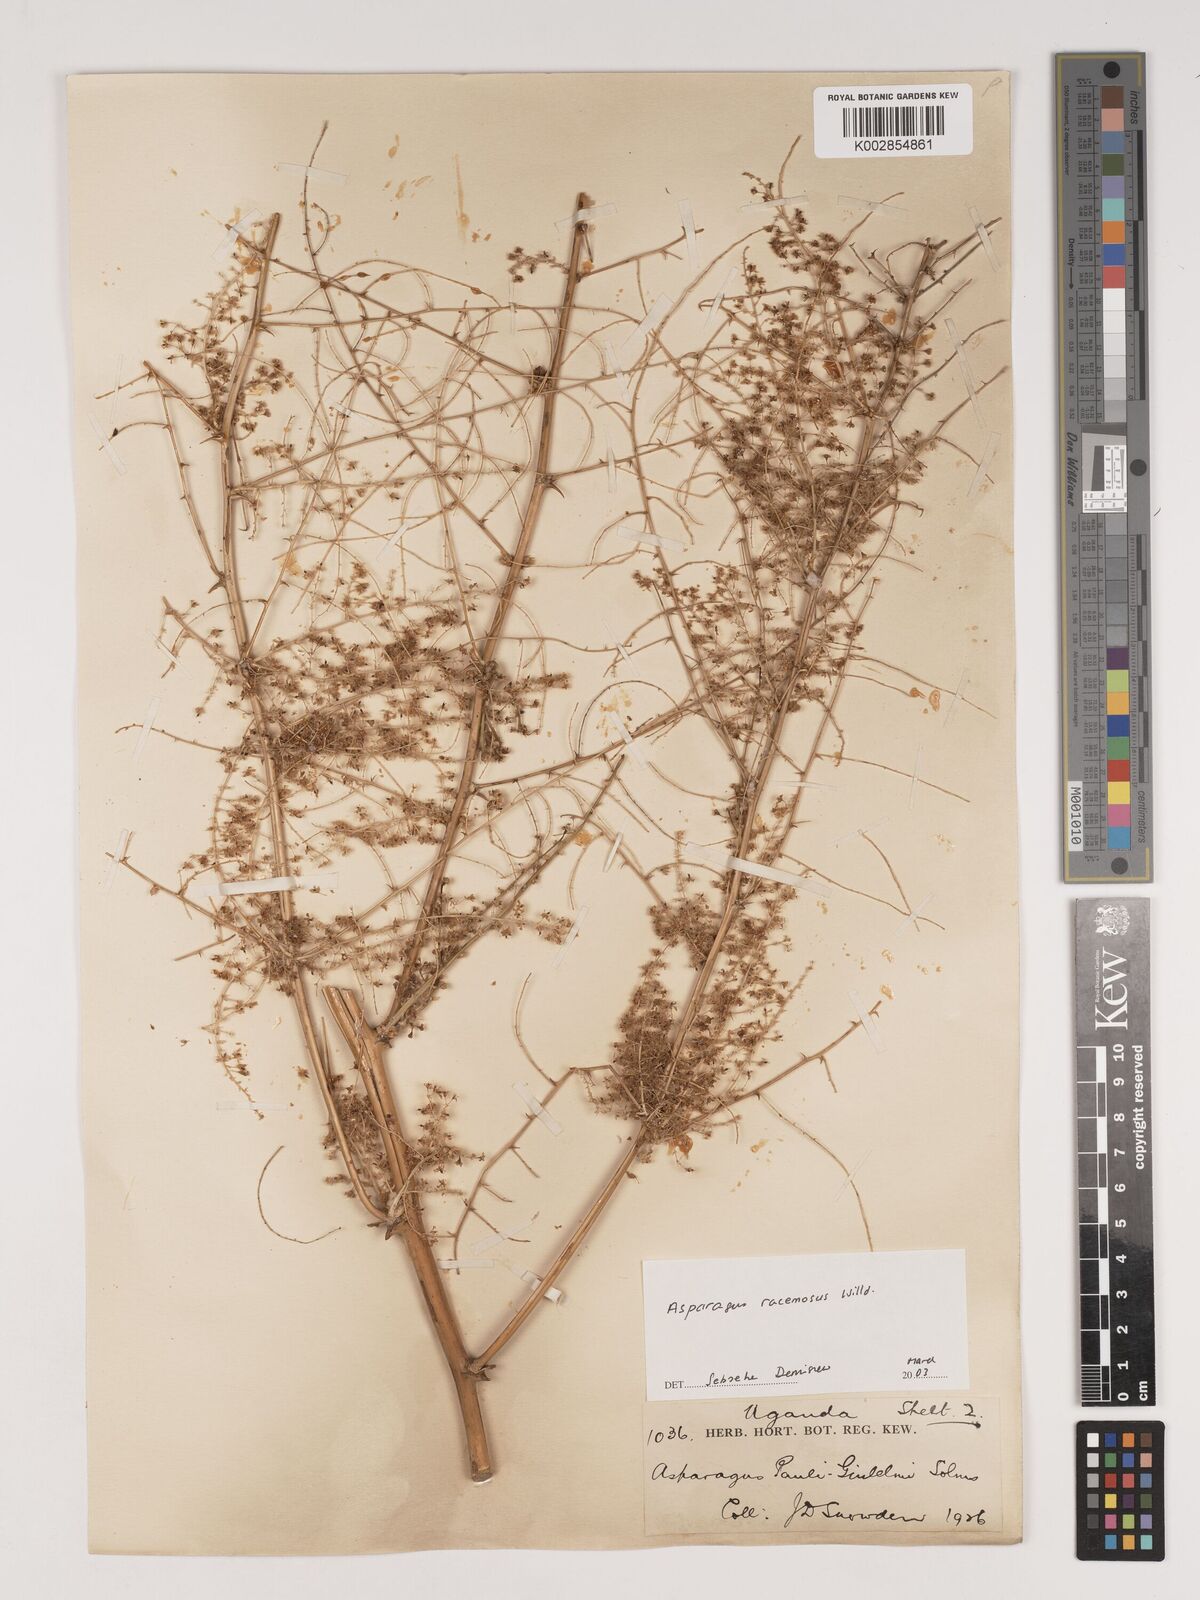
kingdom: Plantae
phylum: Tracheophyta
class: Liliopsida
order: Asparagales
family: Asparagaceae
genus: Asparagus
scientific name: Asparagus racemosus
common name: Asparagus-fern
